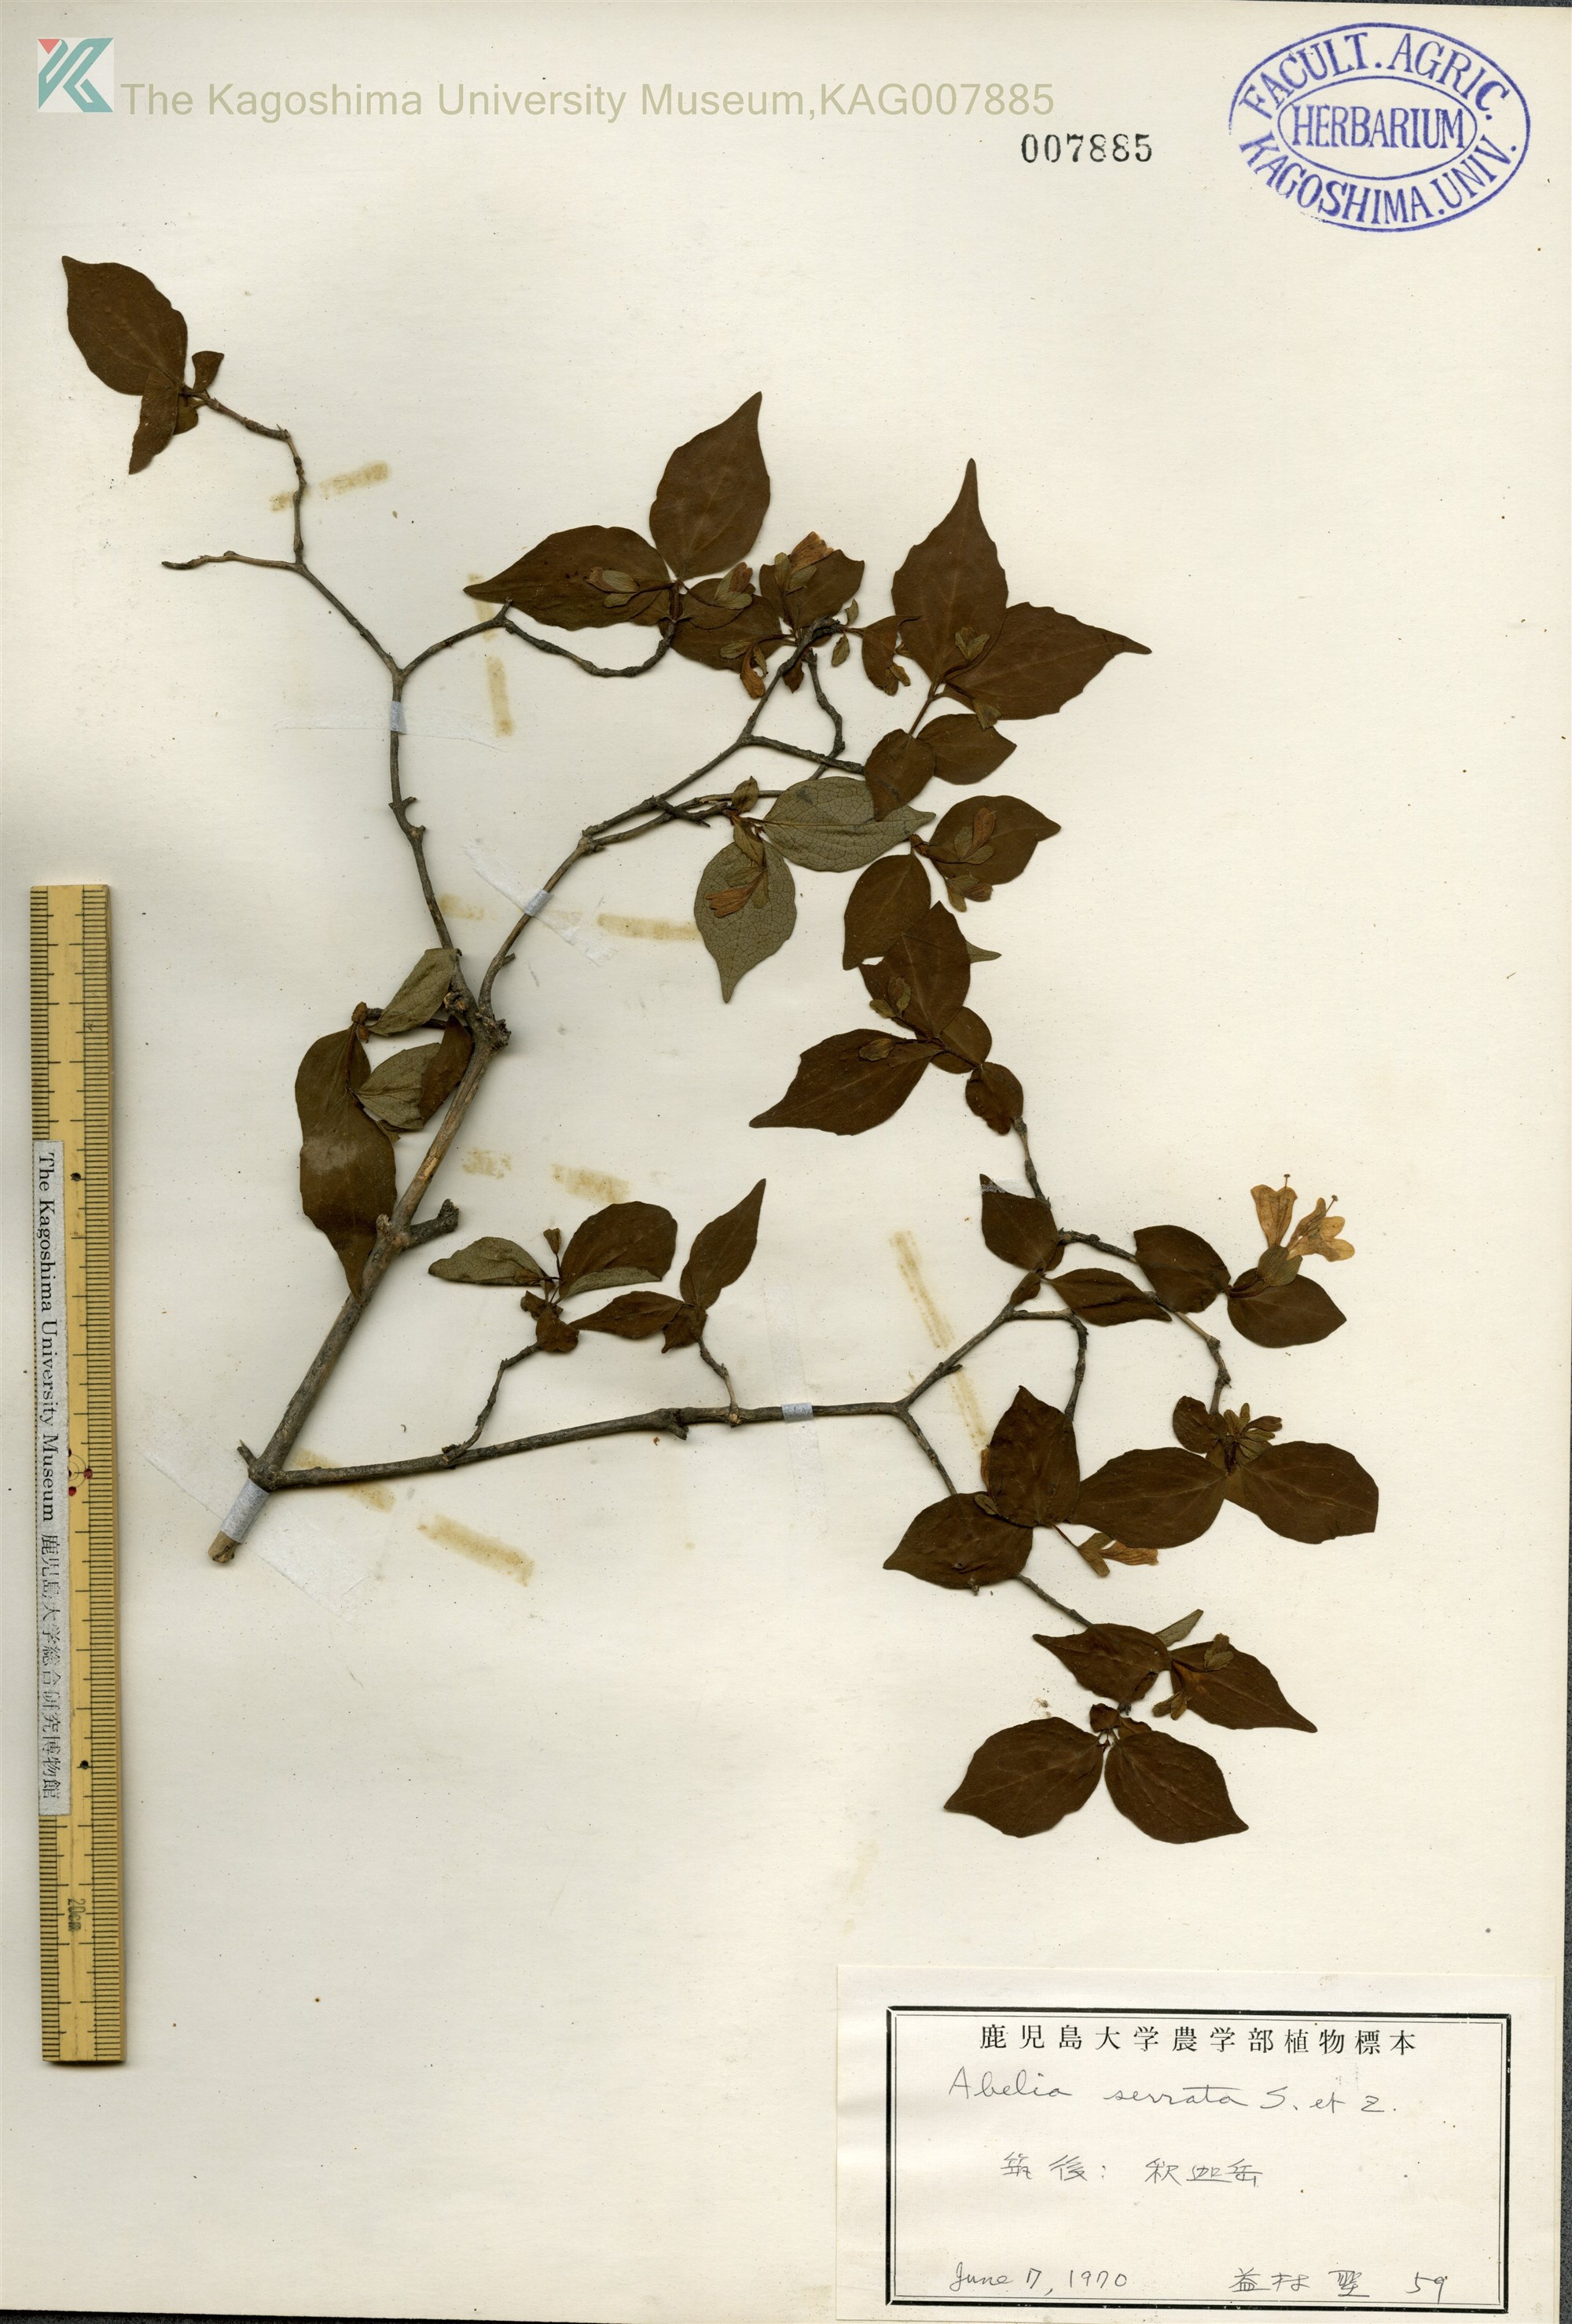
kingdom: Plantae
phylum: Tracheophyta
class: Magnoliopsida
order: Dipsacales
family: Caprifoliaceae
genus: Diabelia
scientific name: Diabelia serrata
